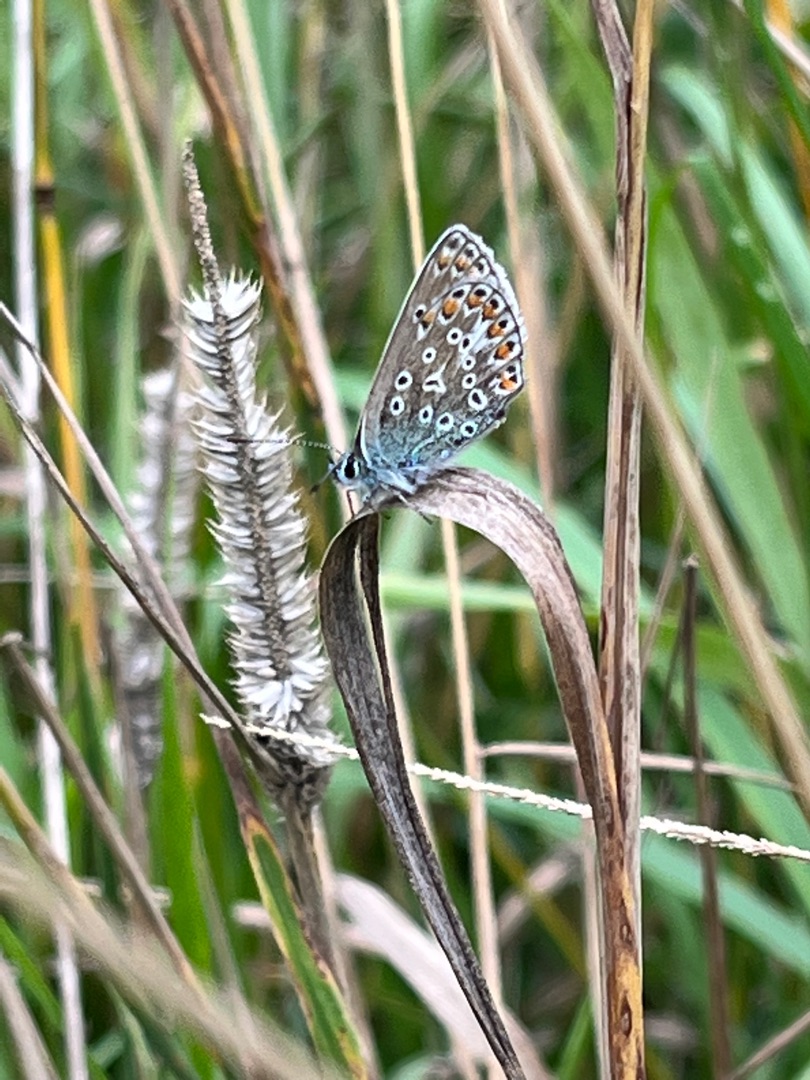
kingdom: Animalia
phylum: Arthropoda
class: Insecta
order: Lepidoptera
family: Lycaenidae
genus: Polyommatus
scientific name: Polyommatus icarus
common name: Almindelig blåfugl
